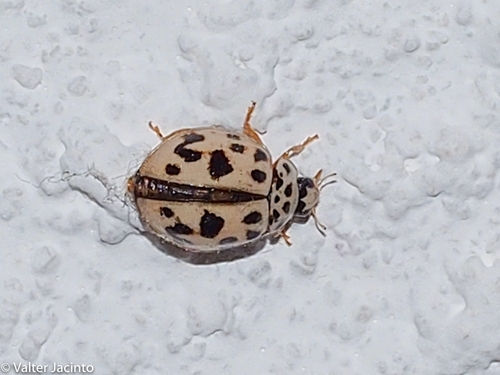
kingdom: Animalia
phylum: Arthropoda
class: Insecta
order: Coleoptera
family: Coccinellidae
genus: Oenopia
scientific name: Oenopia conglobata
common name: Ladybird beetle
